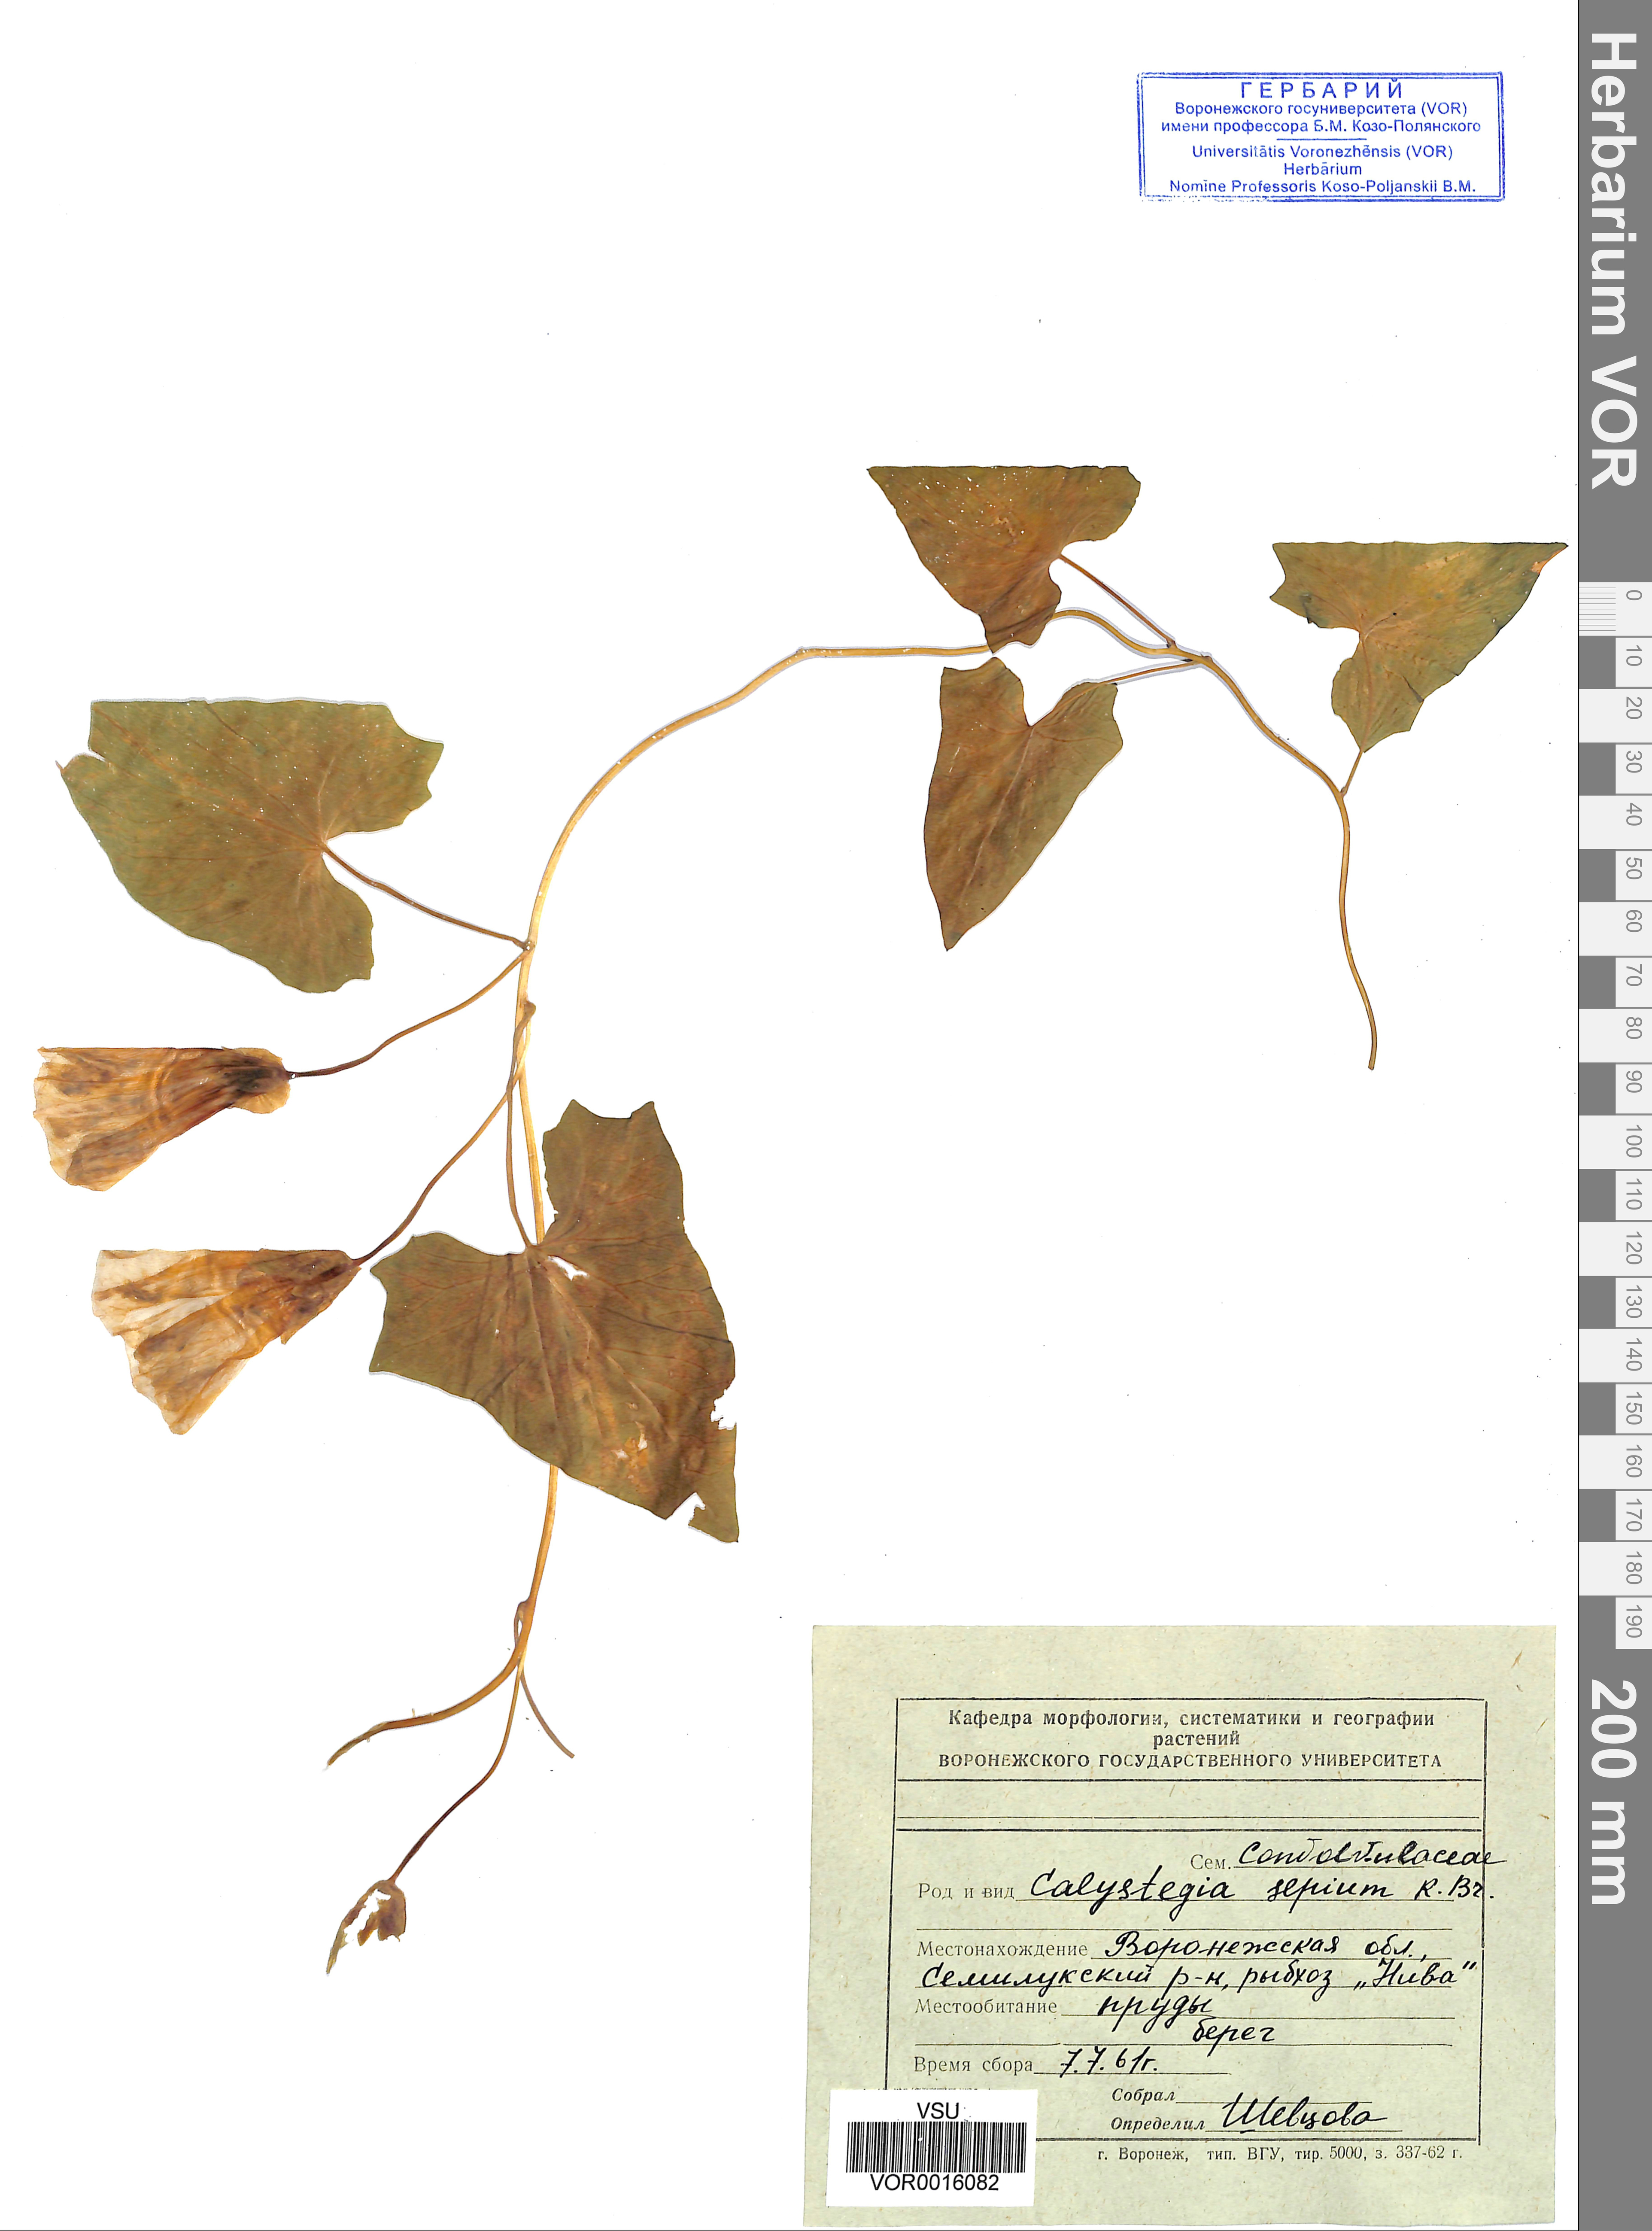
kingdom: Plantae
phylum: Tracheophyta
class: Magnoliopsida
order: Solanales
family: Convolvulaceae
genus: Calystegia
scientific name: Calystegia sepium
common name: Hedge bindweed
